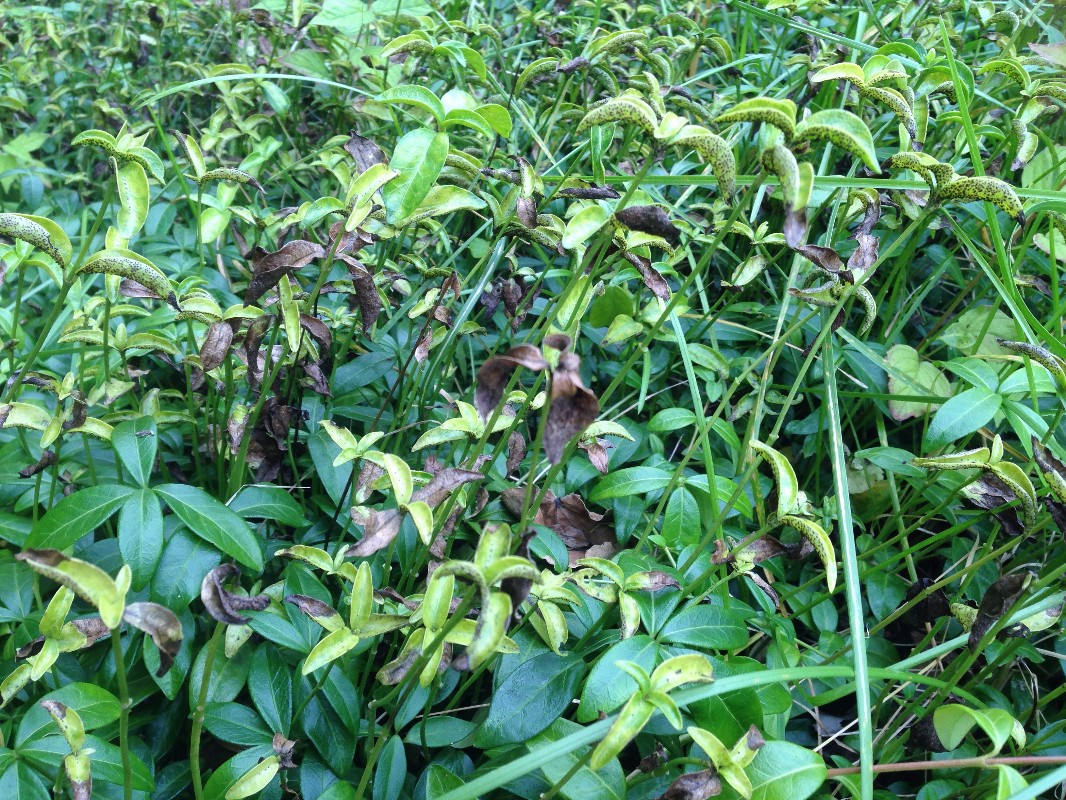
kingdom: Fungi
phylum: Basidiomycota
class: Pucciniomycetes
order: Pucciniales
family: Pucciniaceae
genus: Puccinia
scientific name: Puccinia cribrata
